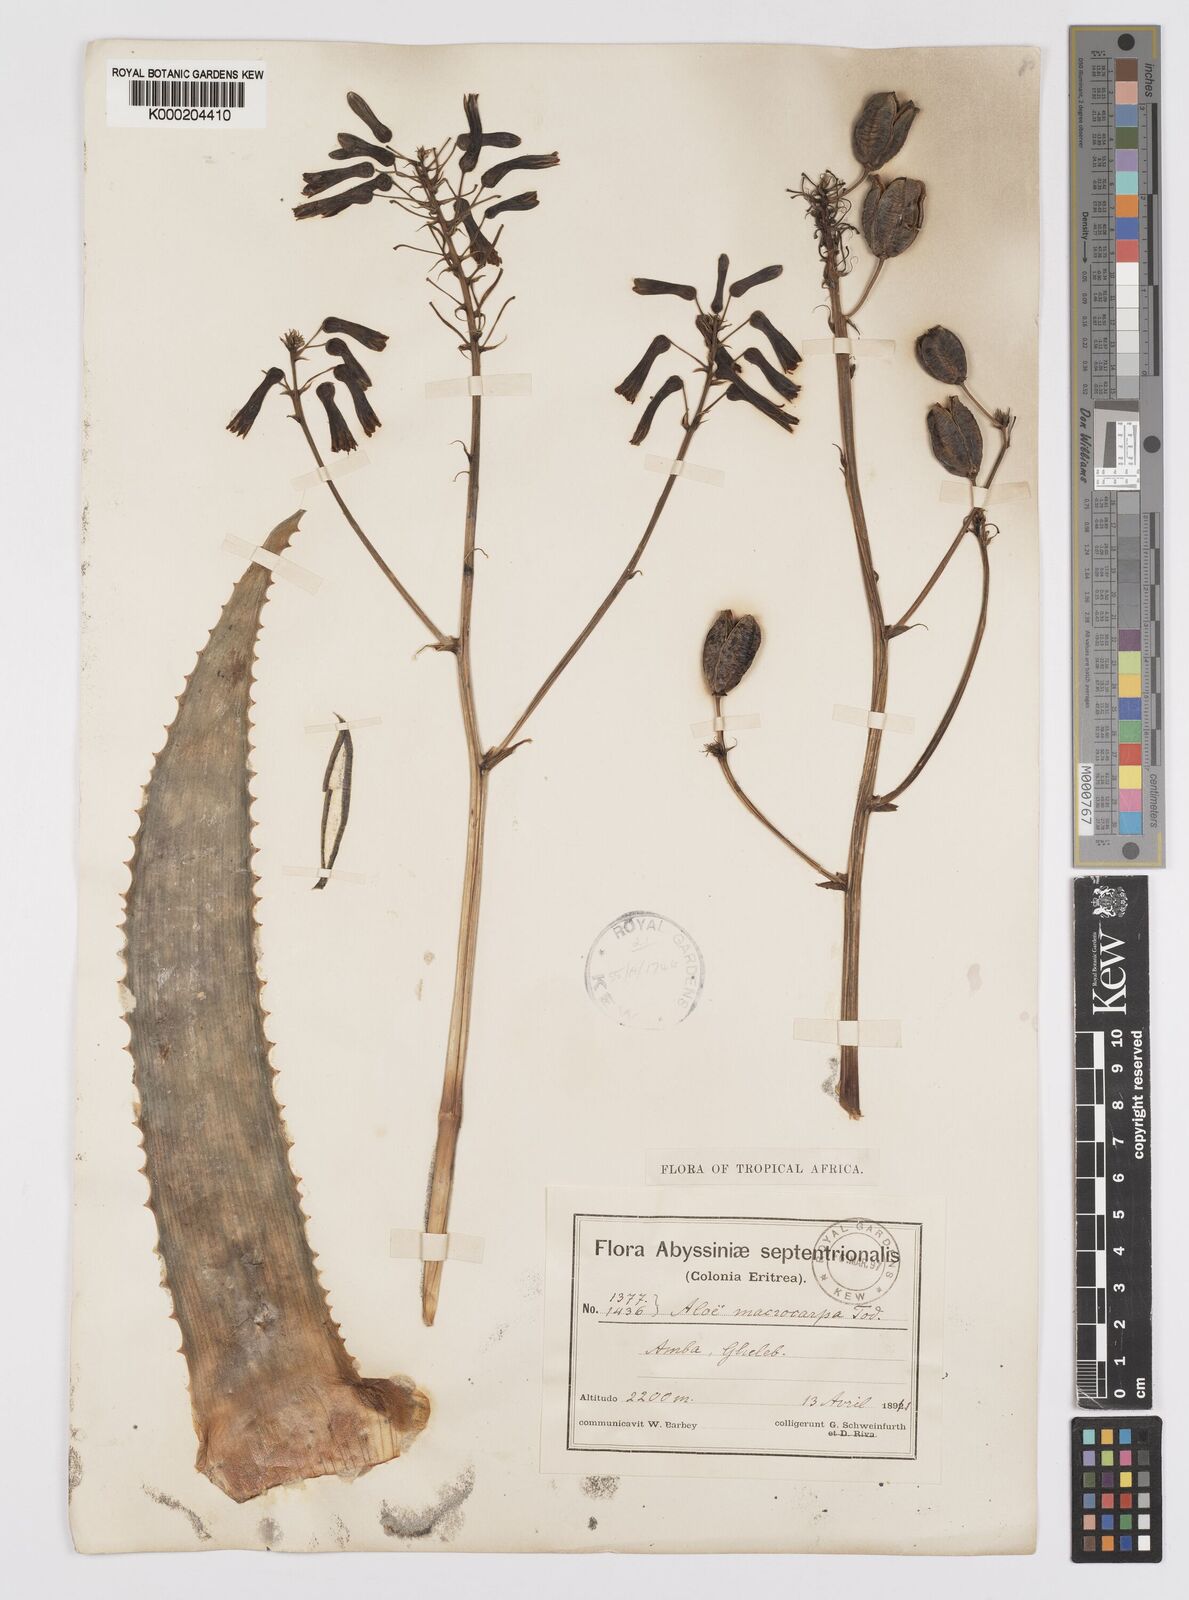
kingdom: Plantae
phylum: Tracheophyta
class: Liliopsida
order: Asparagales
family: Asphodelaceae
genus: Aloe
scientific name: Aloe macrocarpa
